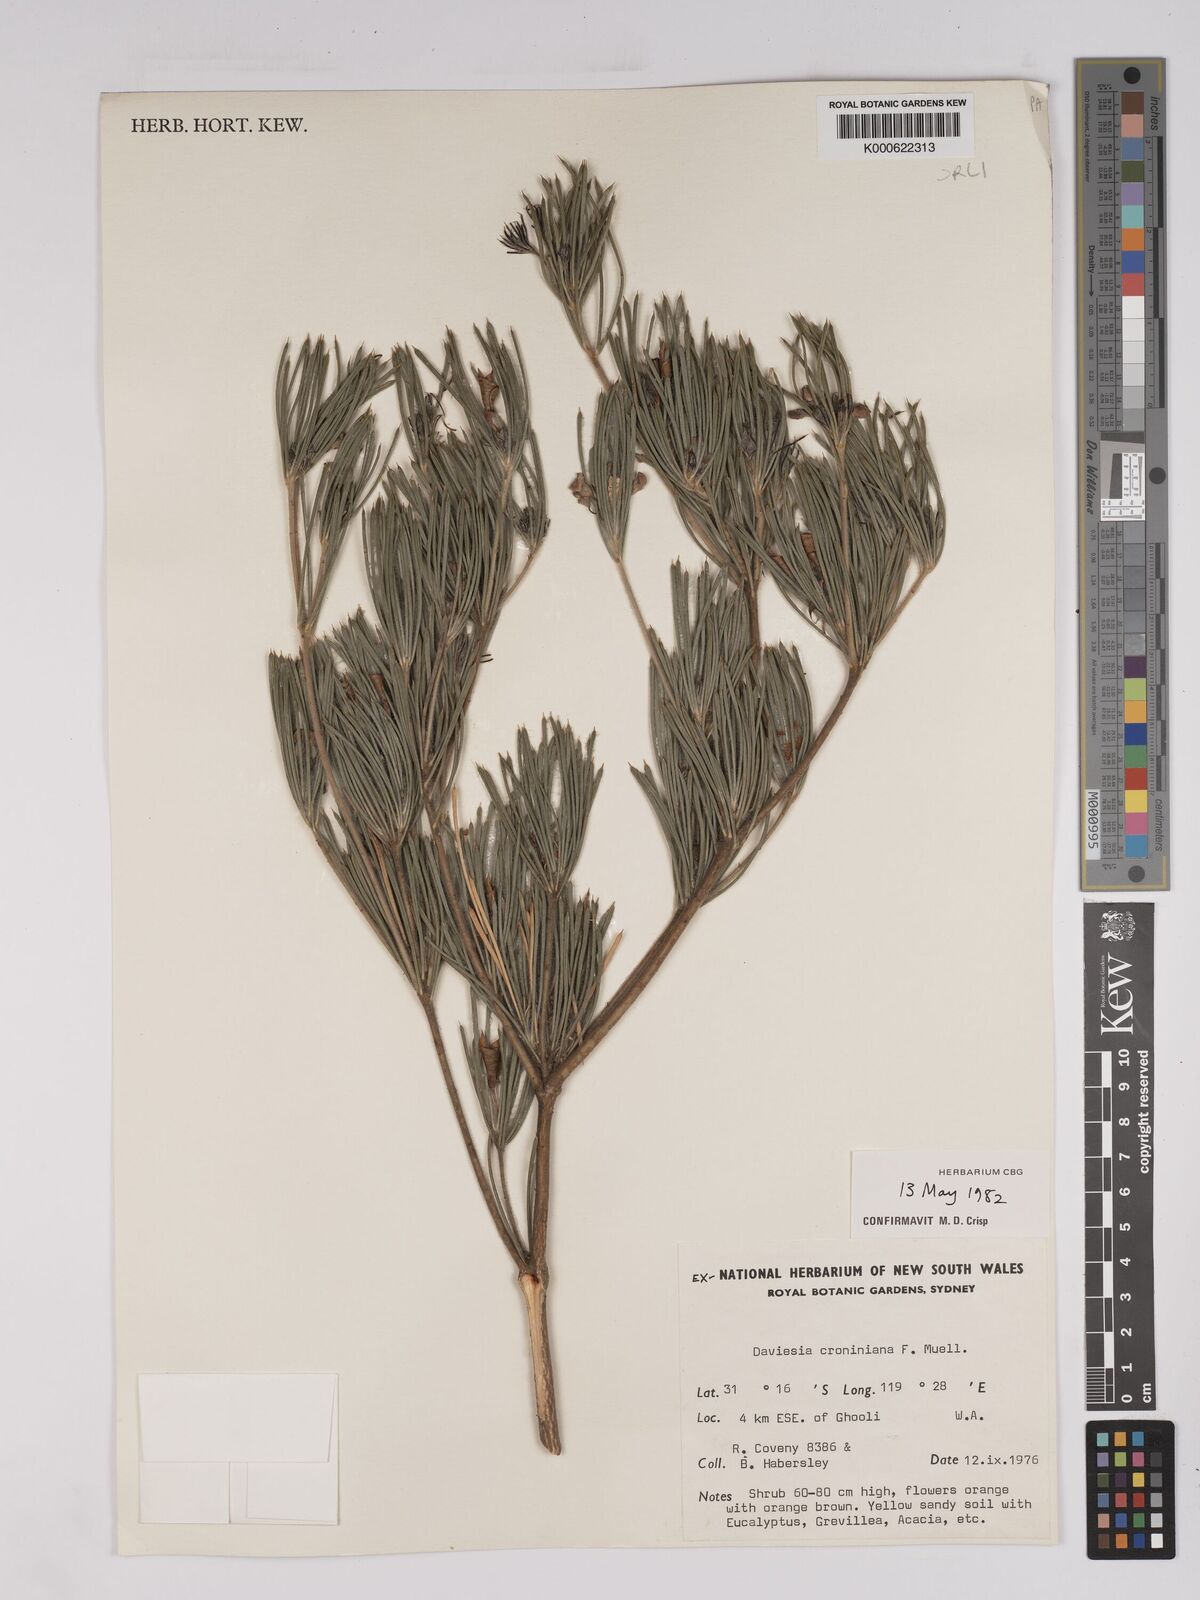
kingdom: Plantae
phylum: Tracheophyta
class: Magnoliopsida
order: Fabales
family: Fabaceae
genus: Daviesia
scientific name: Daviesia croniniana
